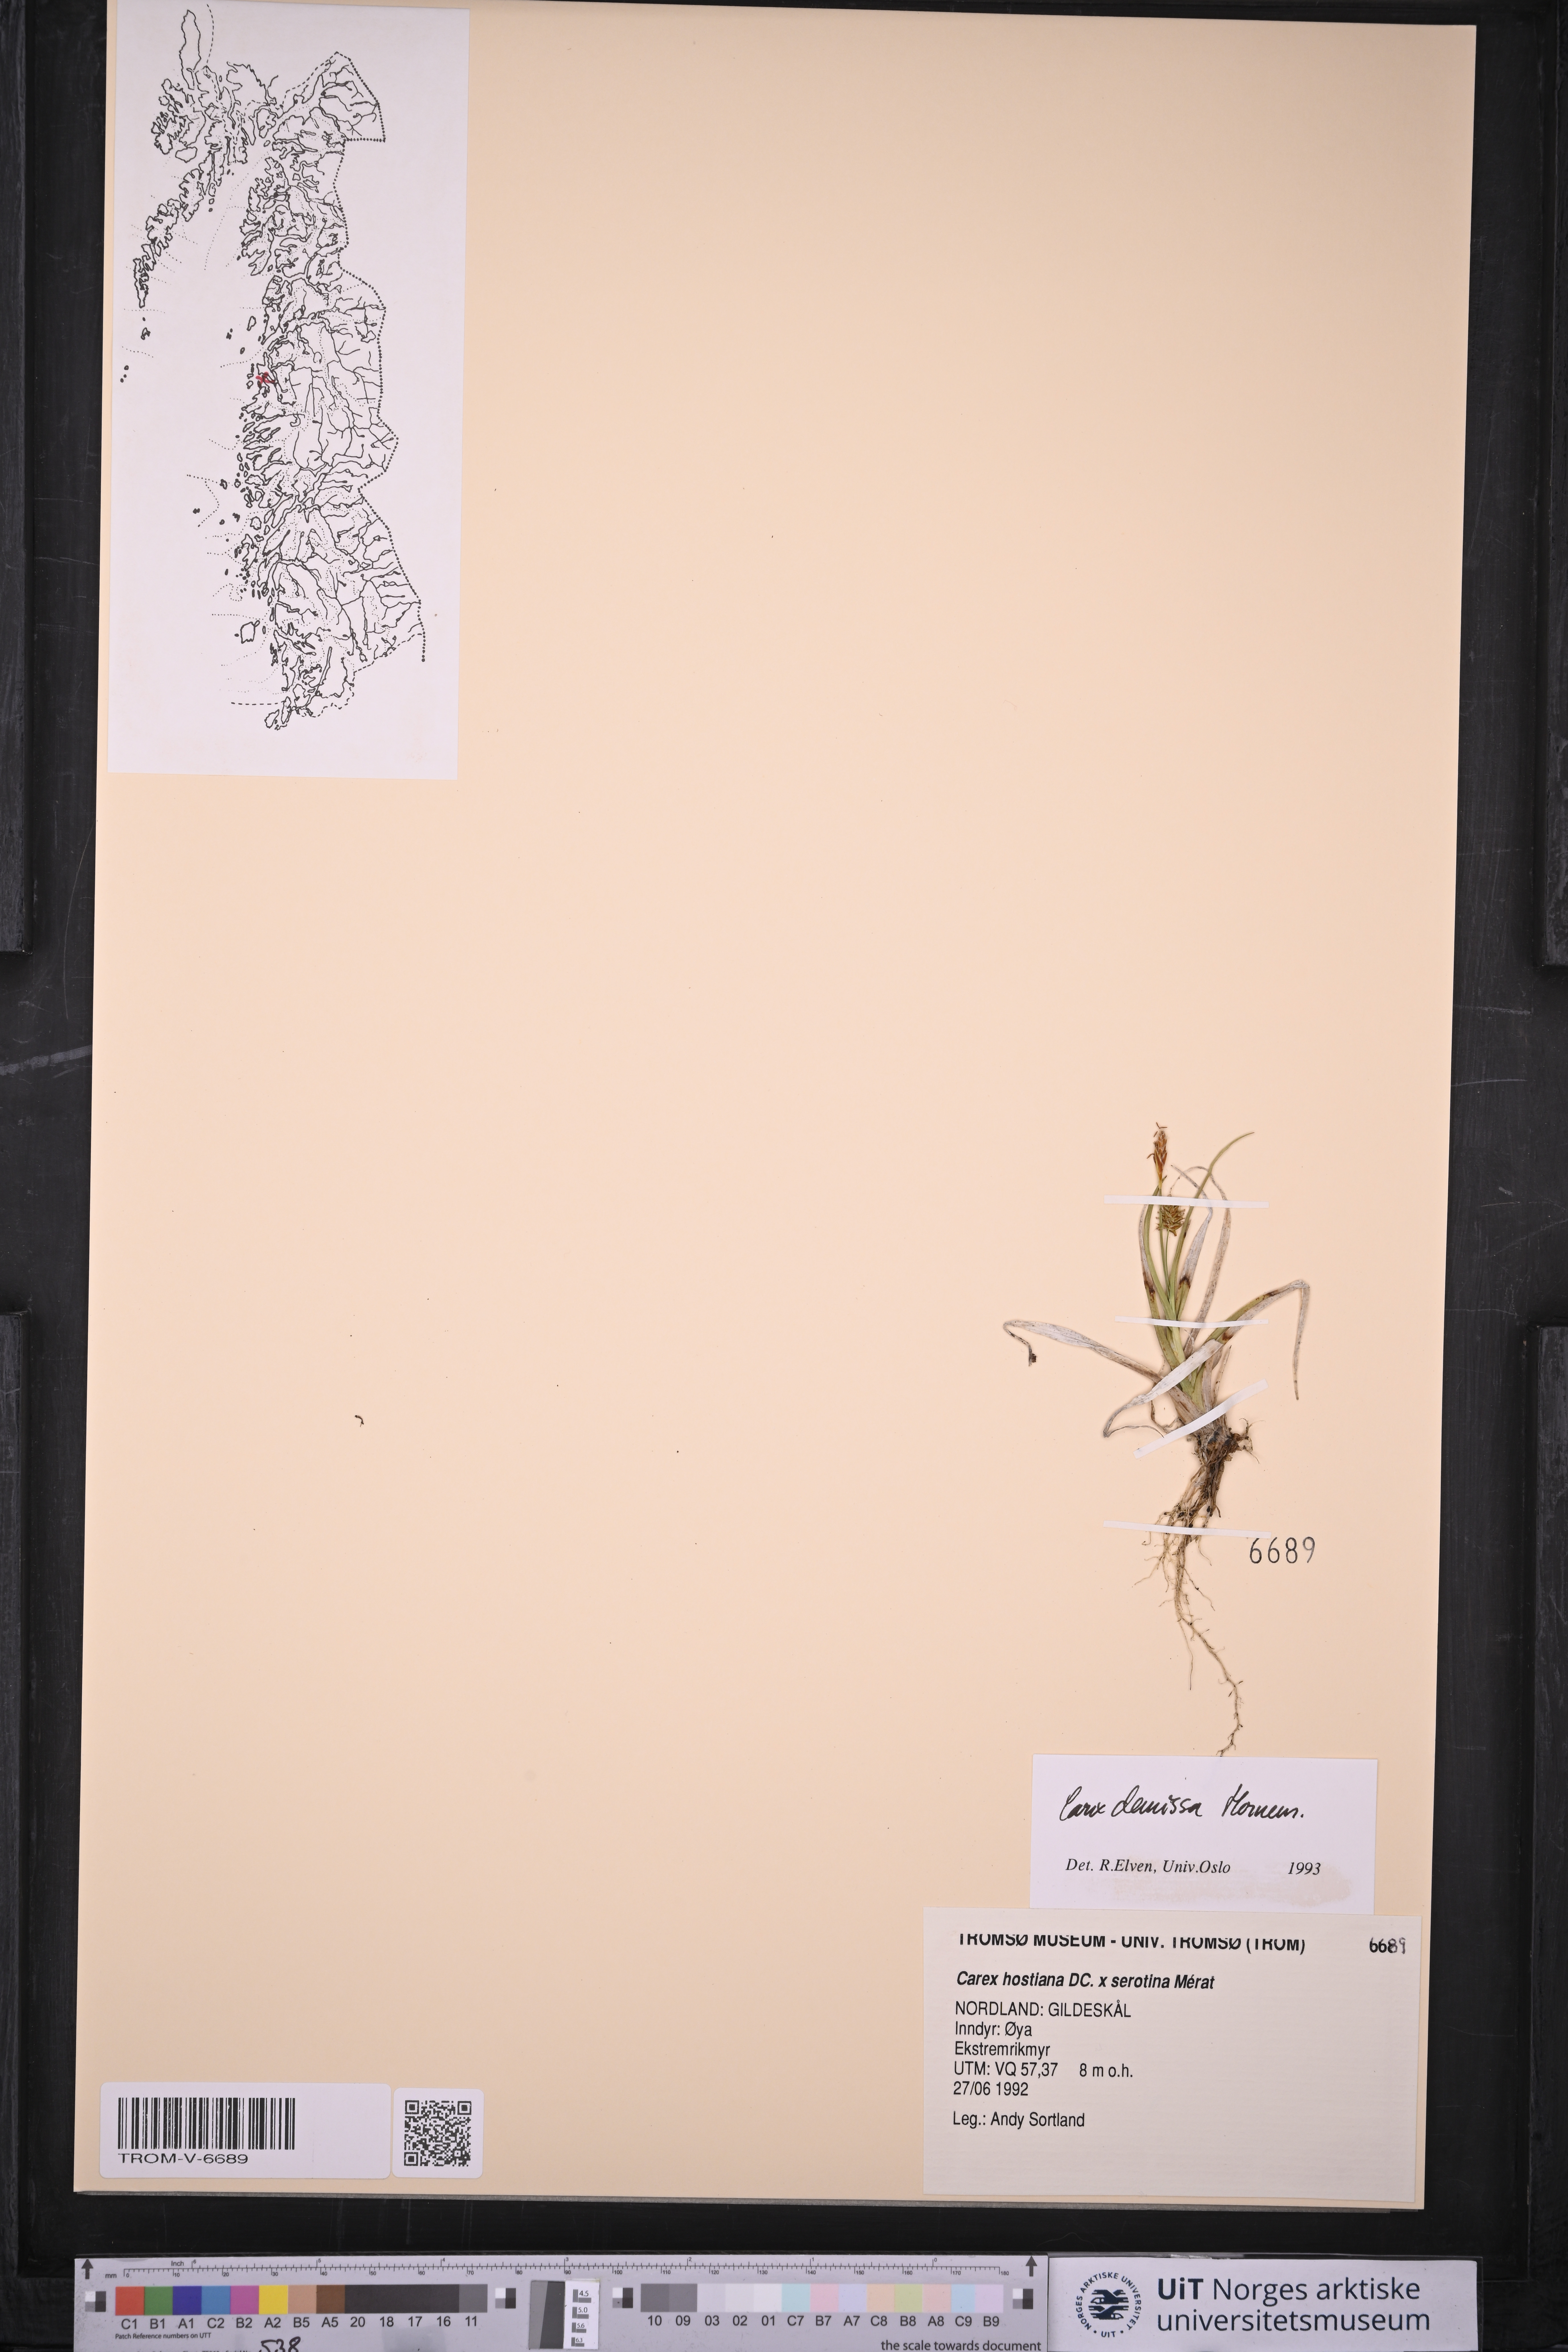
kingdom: Plantae
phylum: Tracheophyta
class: Liliopsida
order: Poales
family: Cyperaceae
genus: Carex
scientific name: Carex demissa
